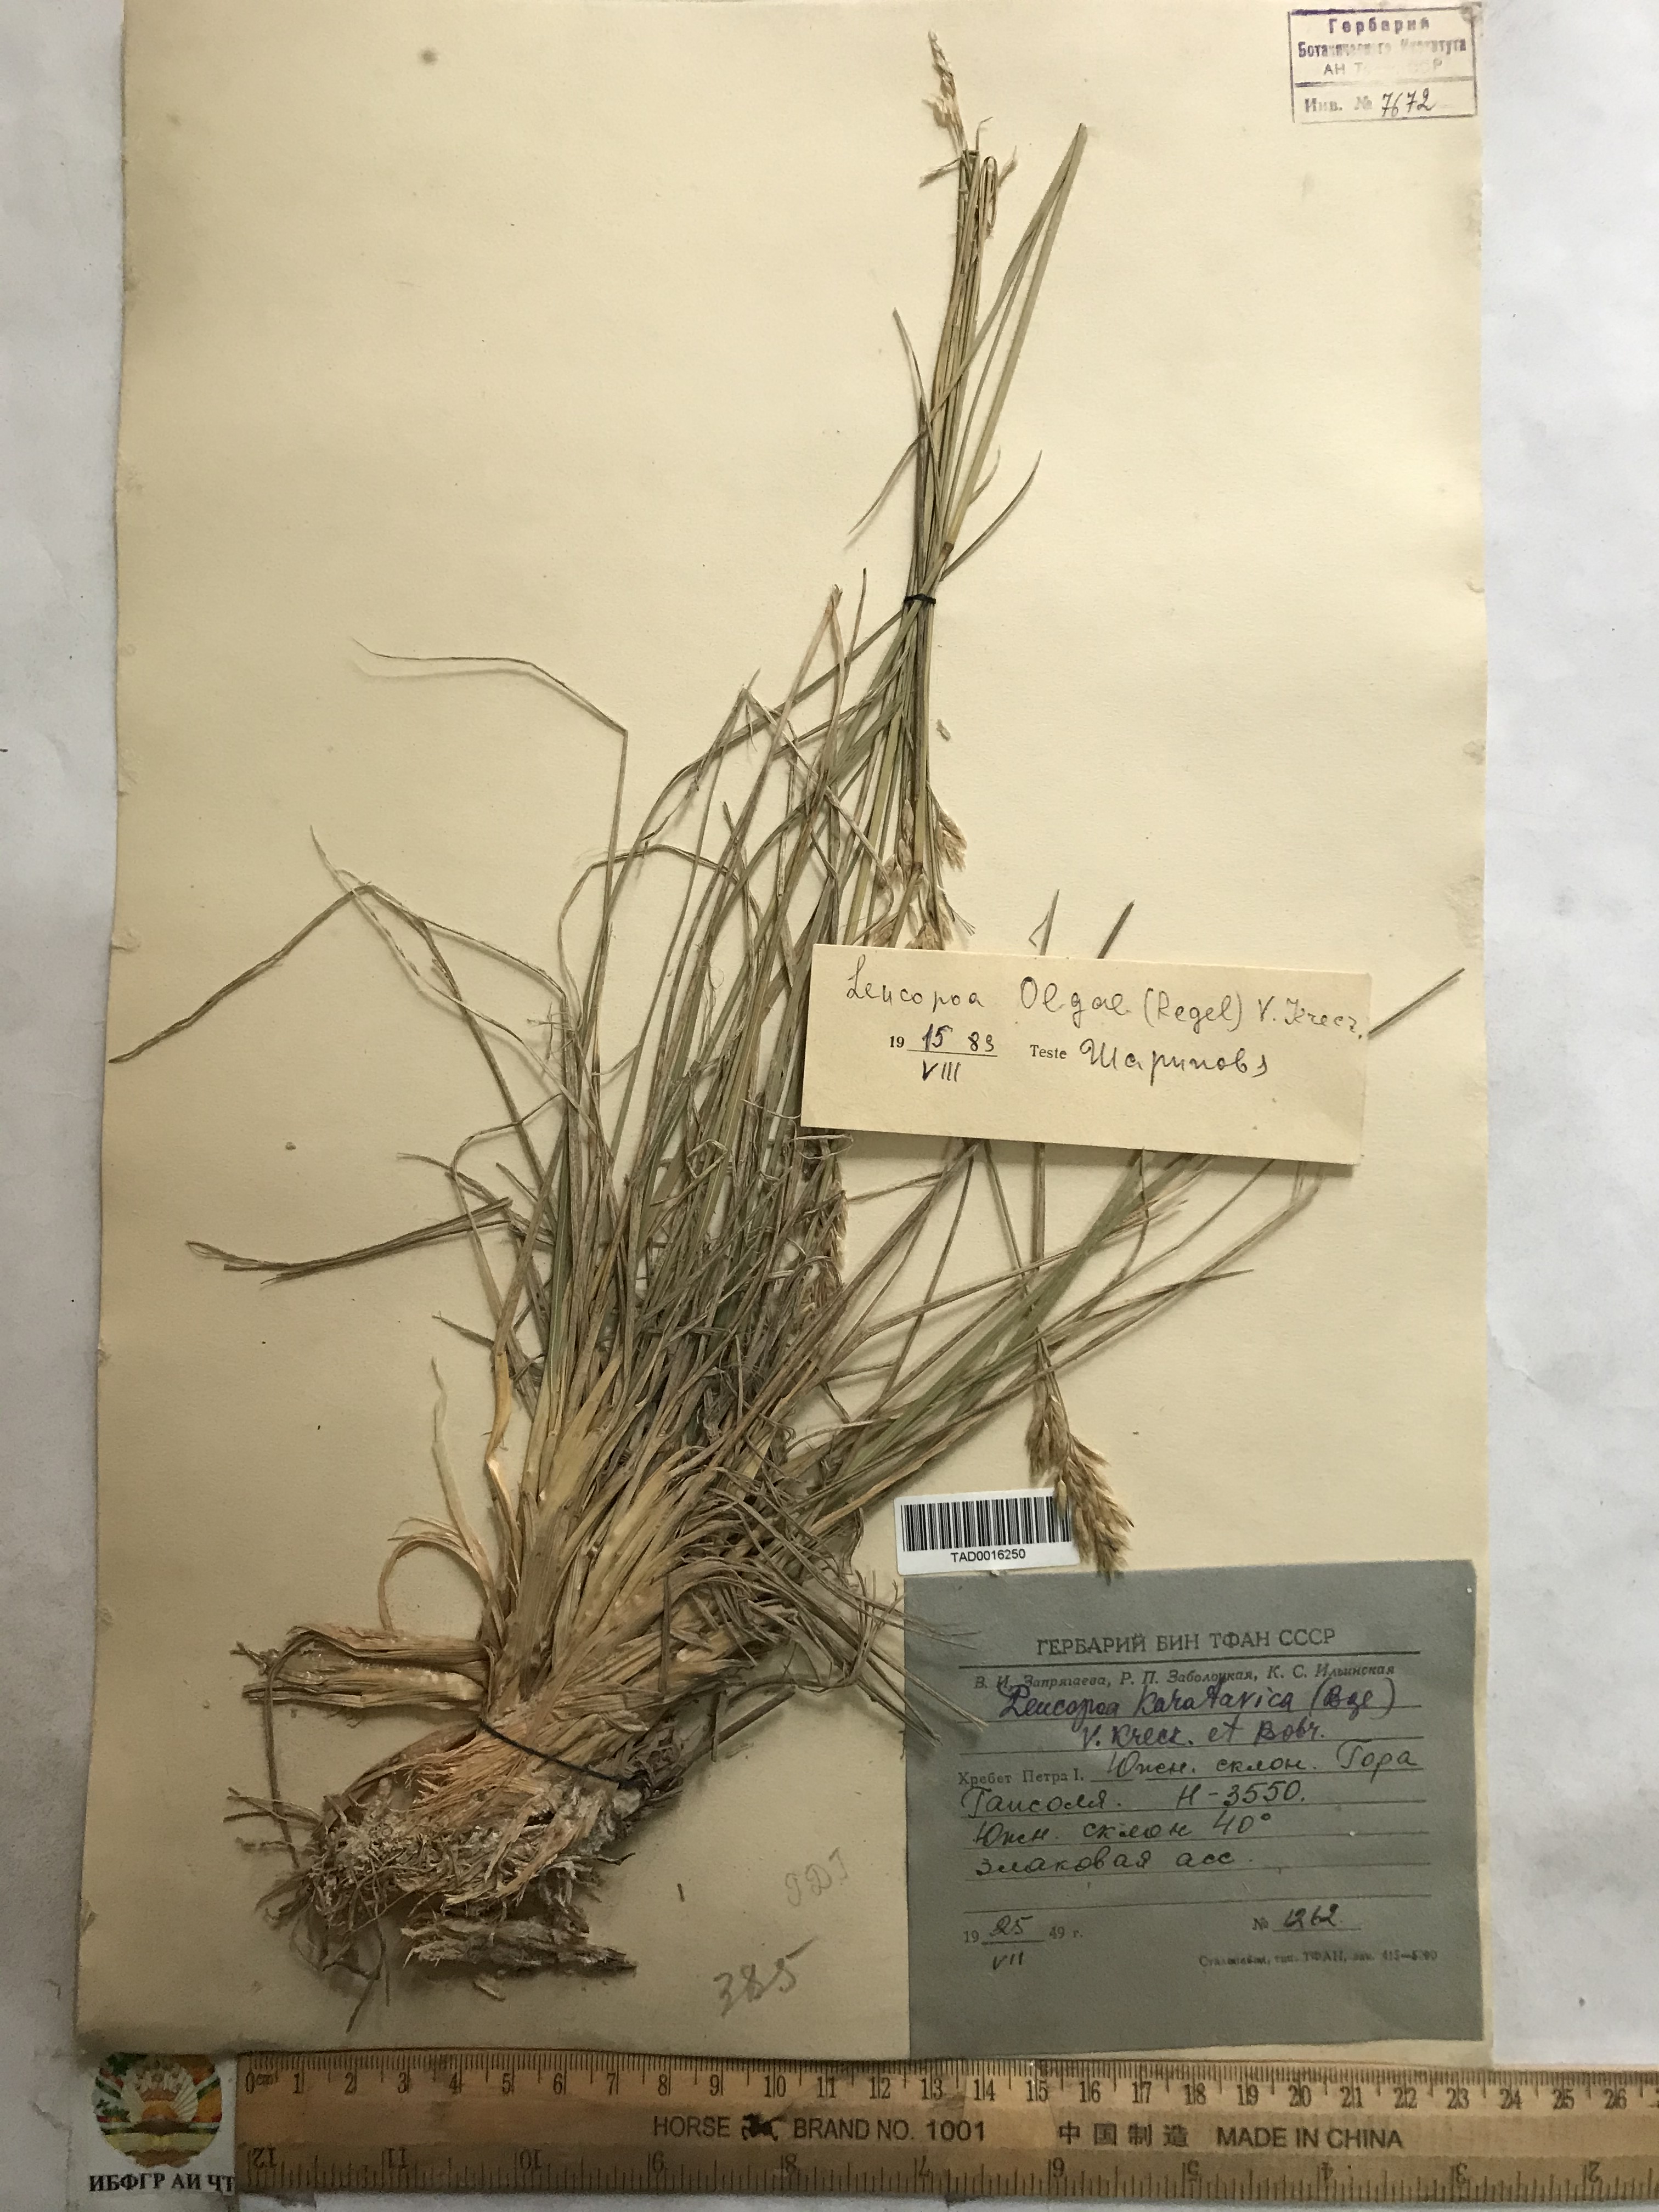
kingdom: Plantae
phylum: Tracheophyta
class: Liliopsida
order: Poales
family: Poaceae
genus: Festuca
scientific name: Festuca karatavica
